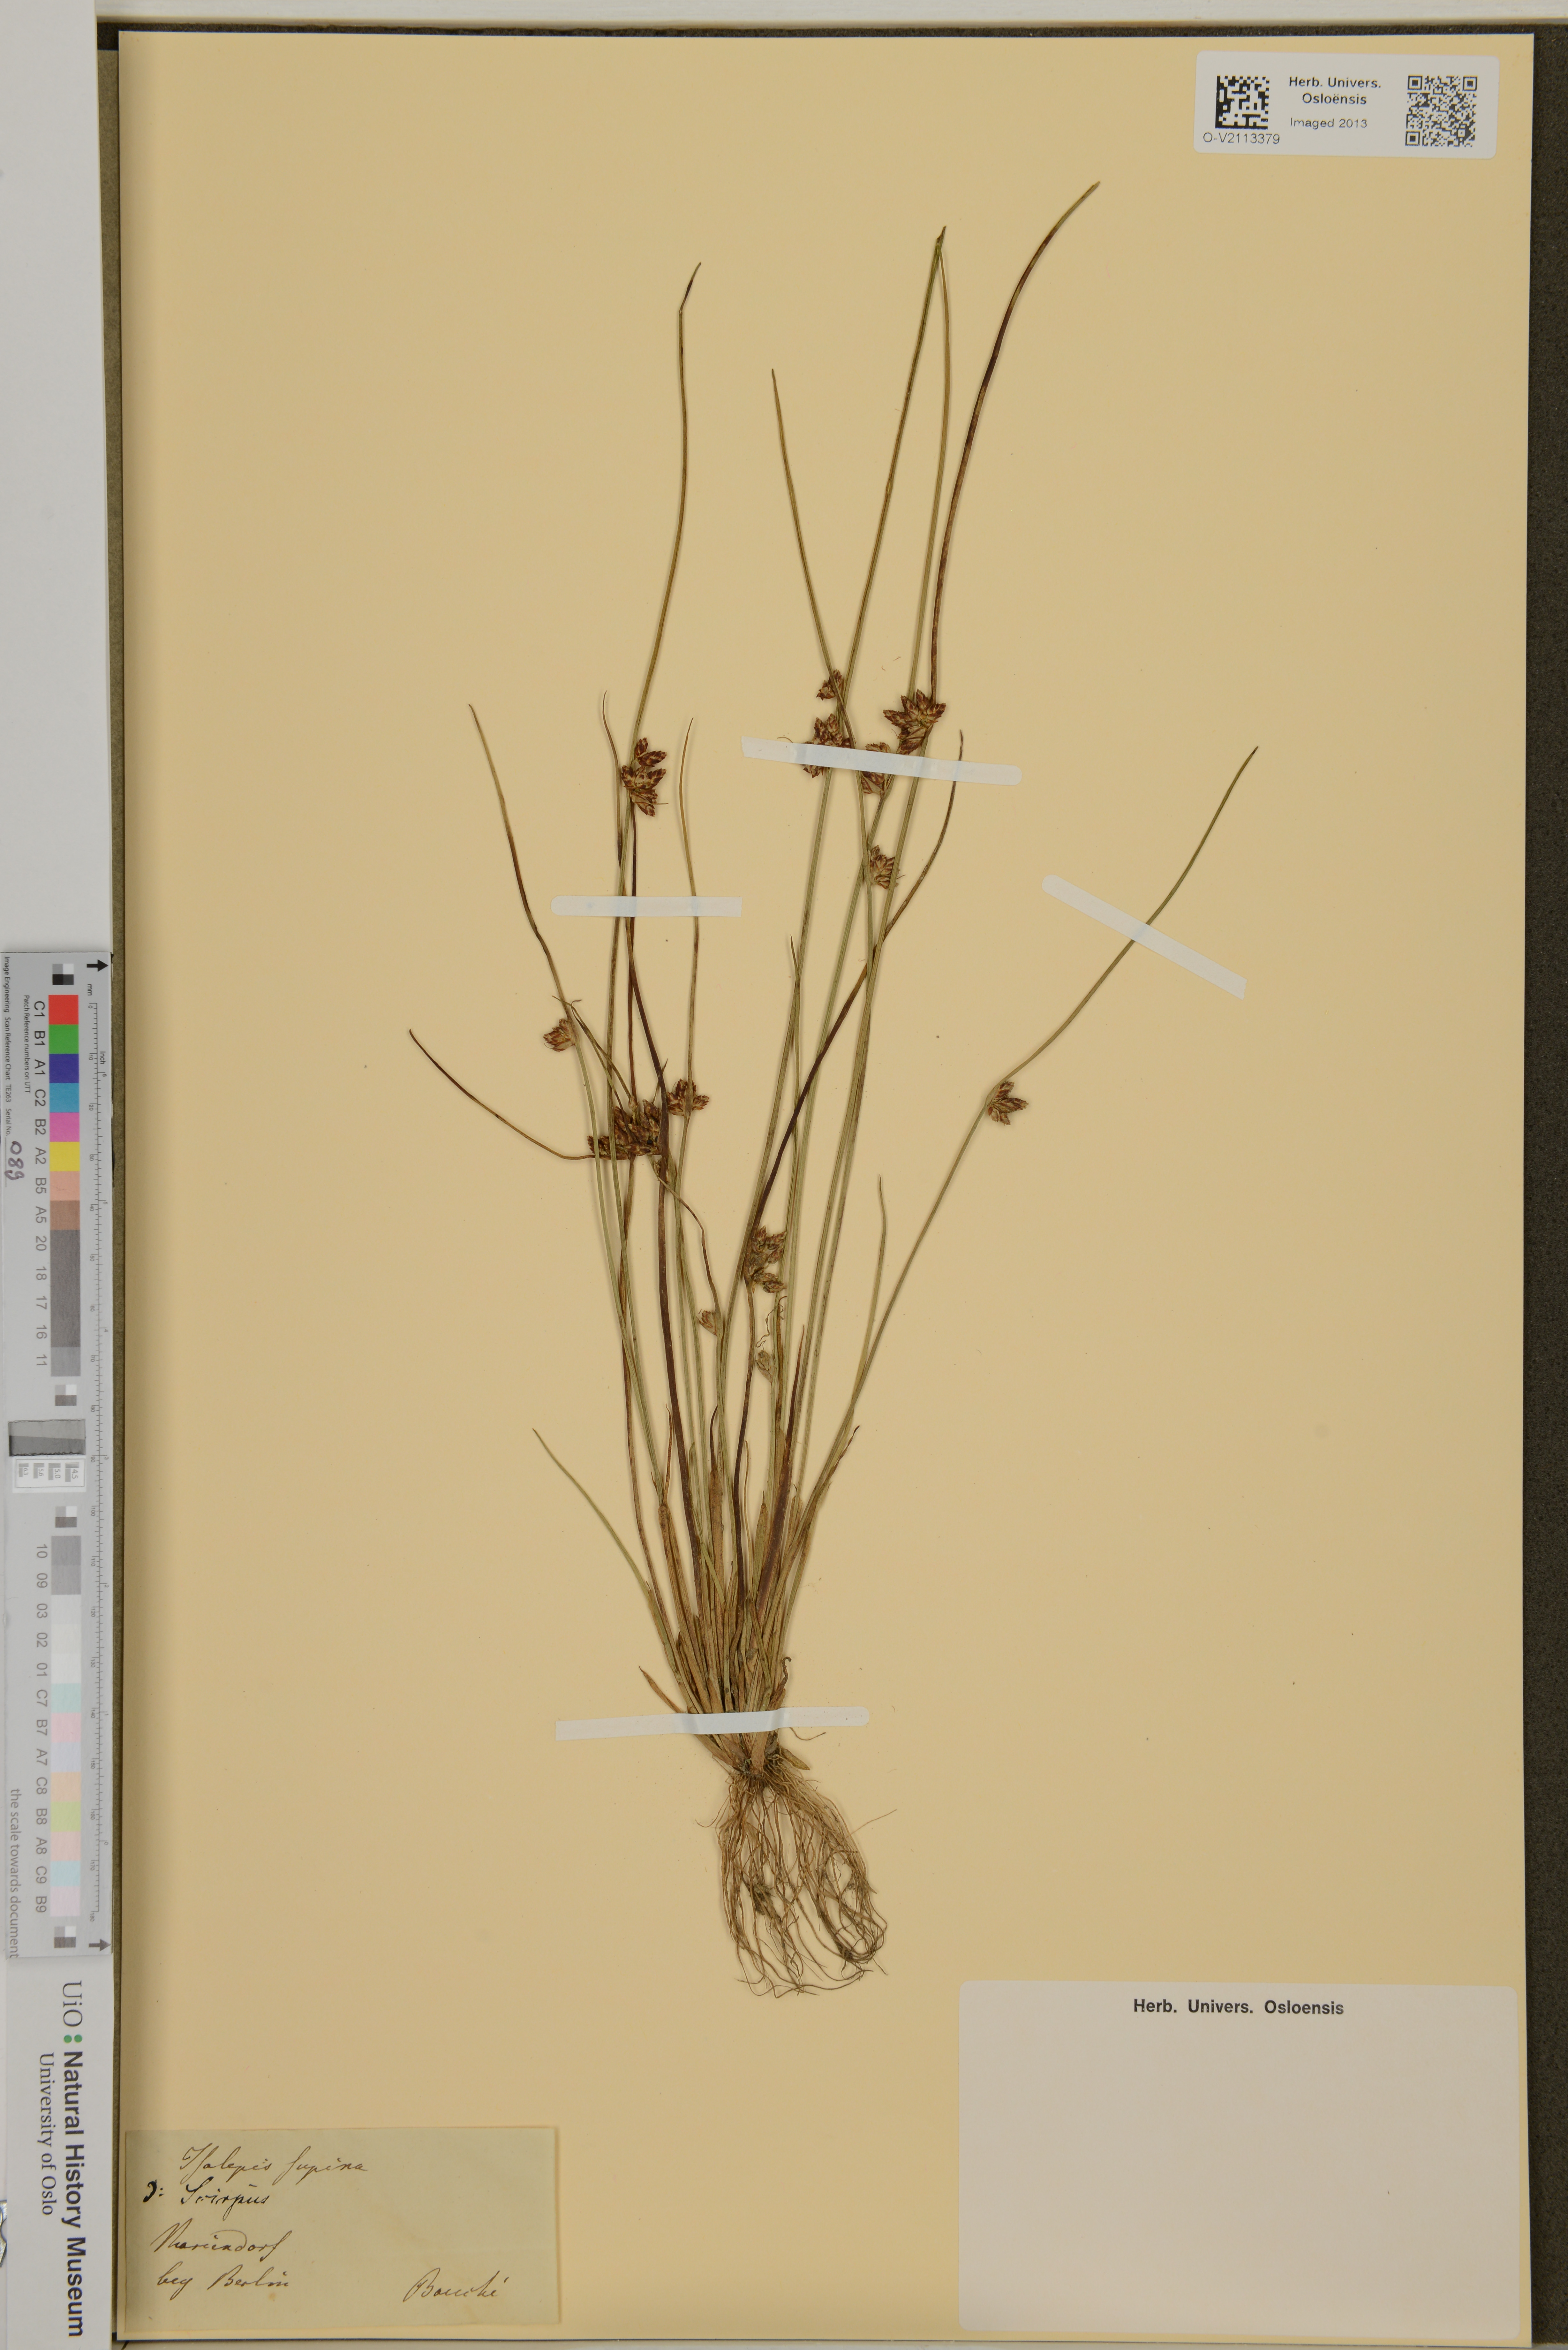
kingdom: Plantae
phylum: Tracheophyta
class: Liliopsida
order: Poales
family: Cyperaceae
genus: Scirpus
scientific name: Scirpus
